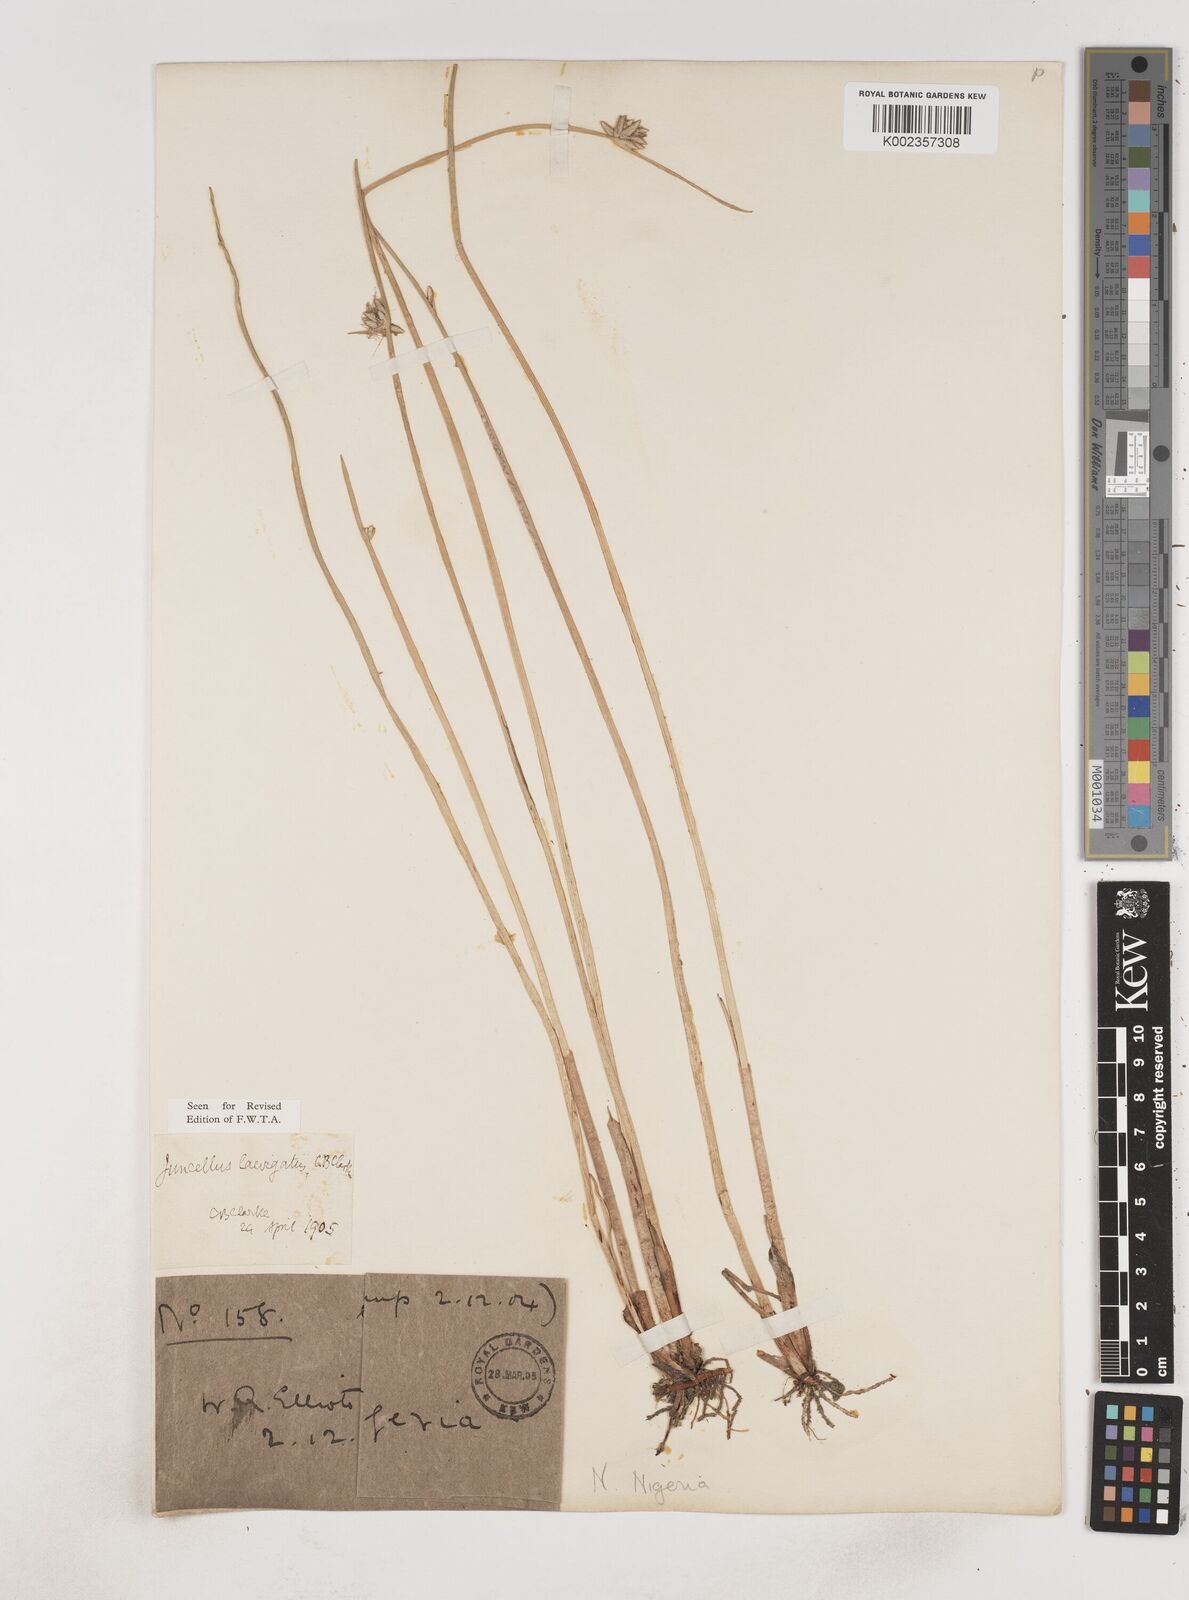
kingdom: Plantae
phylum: Tracheophyta
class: Liliopsida
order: Poales
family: Cyperaceae
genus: Cyperus
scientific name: Cyperus laevigatus
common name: Smooth flat sedge
